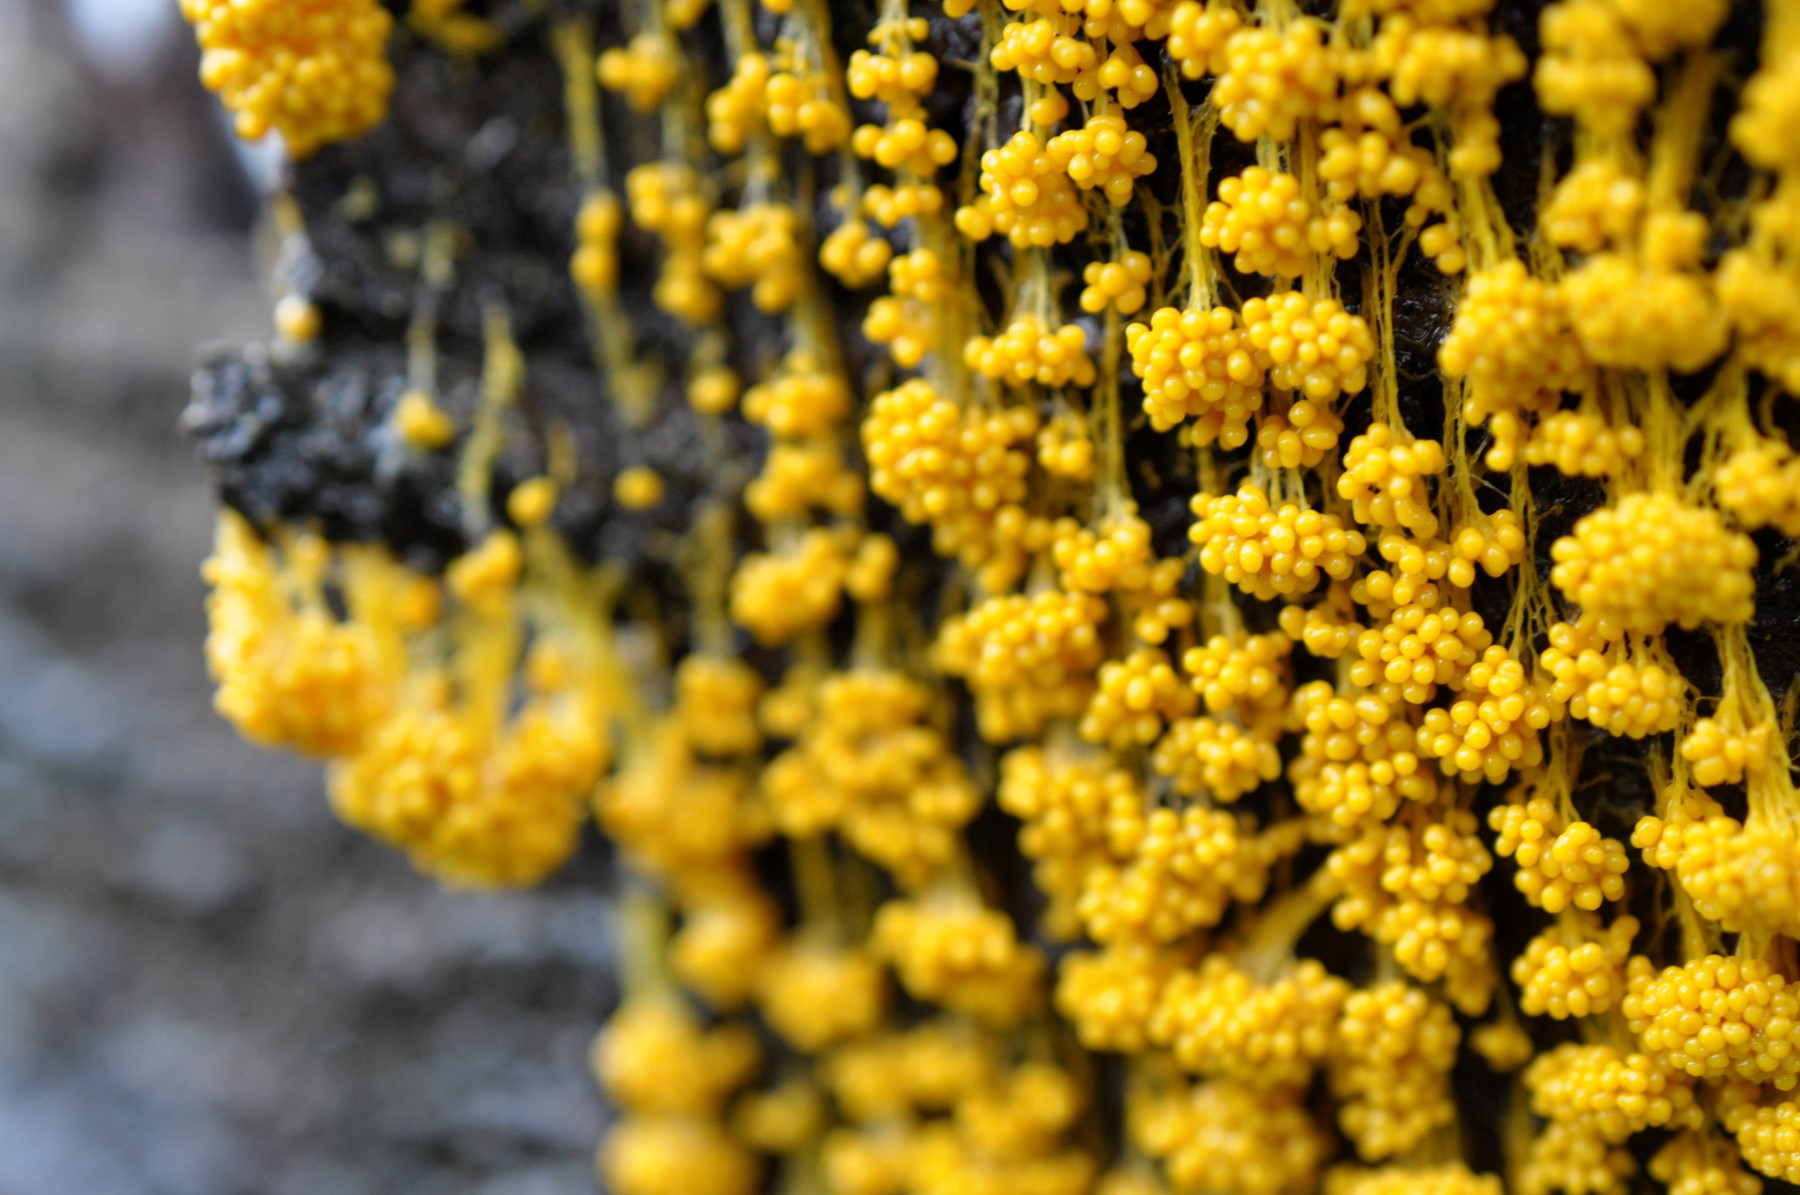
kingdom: Protozoa
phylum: Mycetozoa
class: Myxomycetes
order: Physarales
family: Physaraceae
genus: Badhamia
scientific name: Badhamia utricularis
